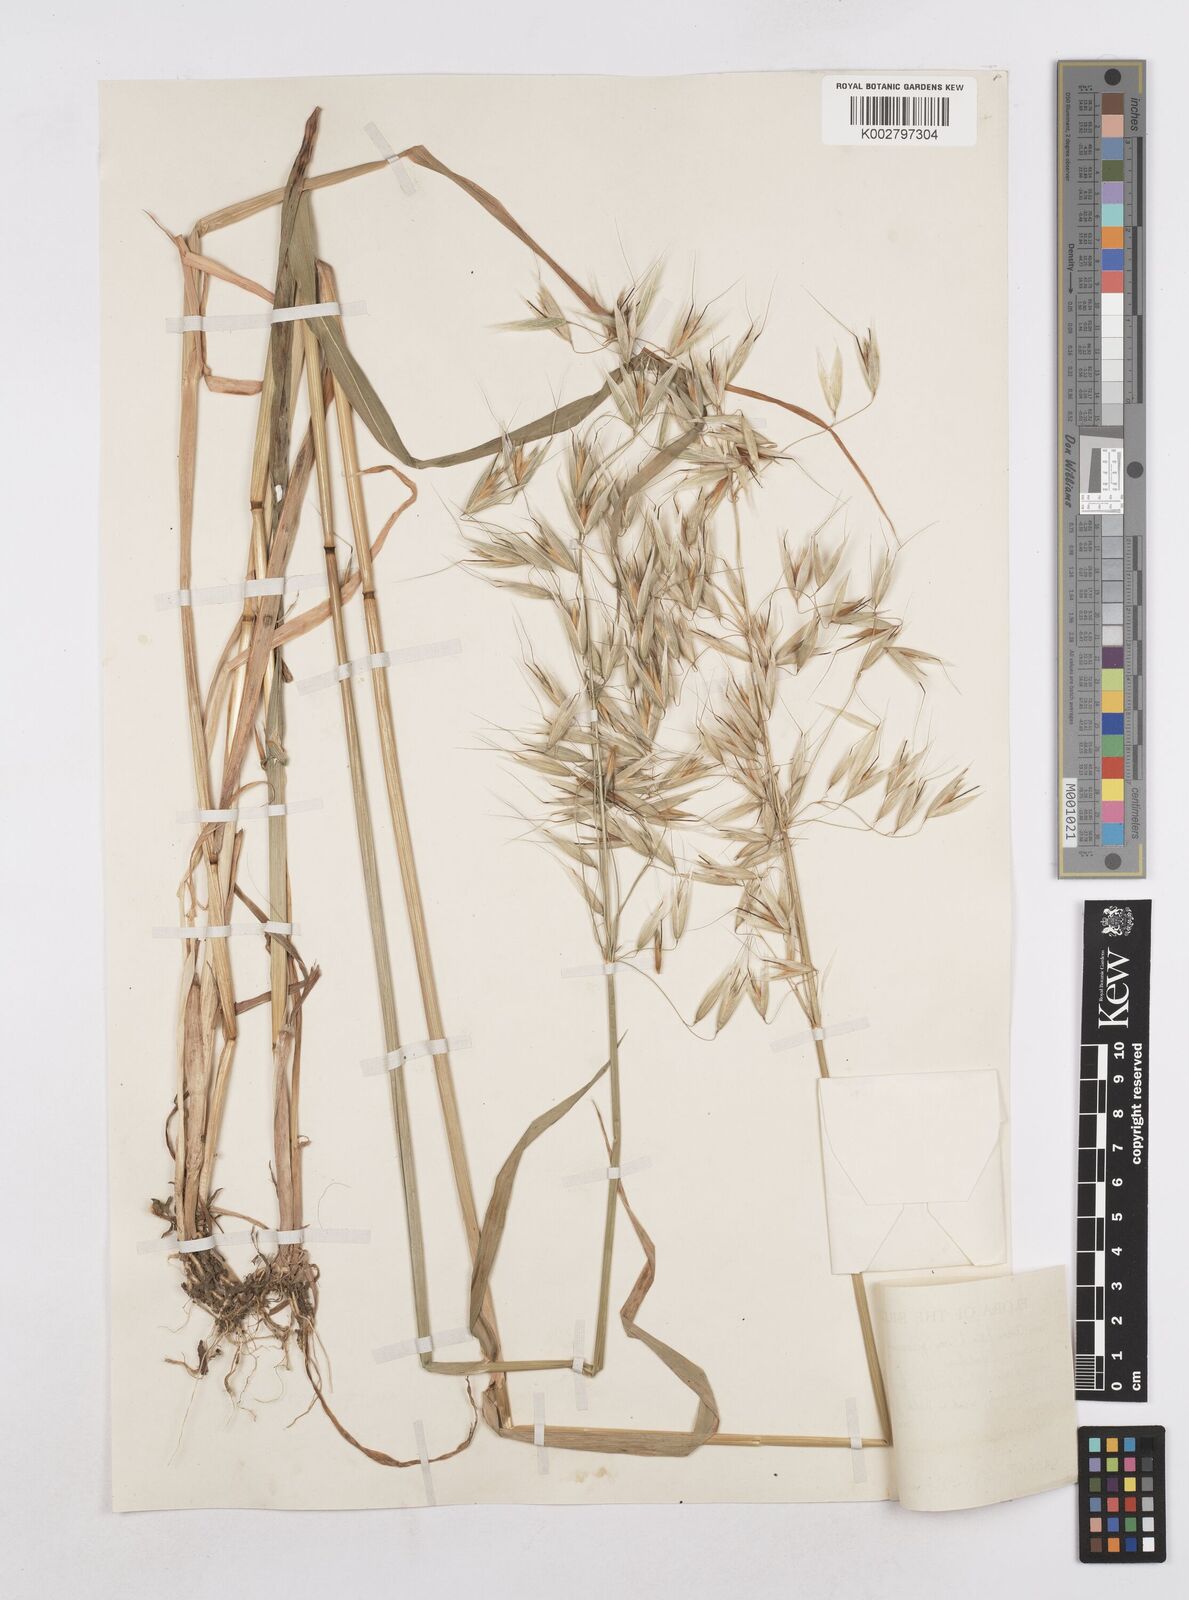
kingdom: Plantae
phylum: Tracheophyta
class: Liliopsida
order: Poales
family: Poaceae
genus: Avena
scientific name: Avena fatua
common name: Wild oat
